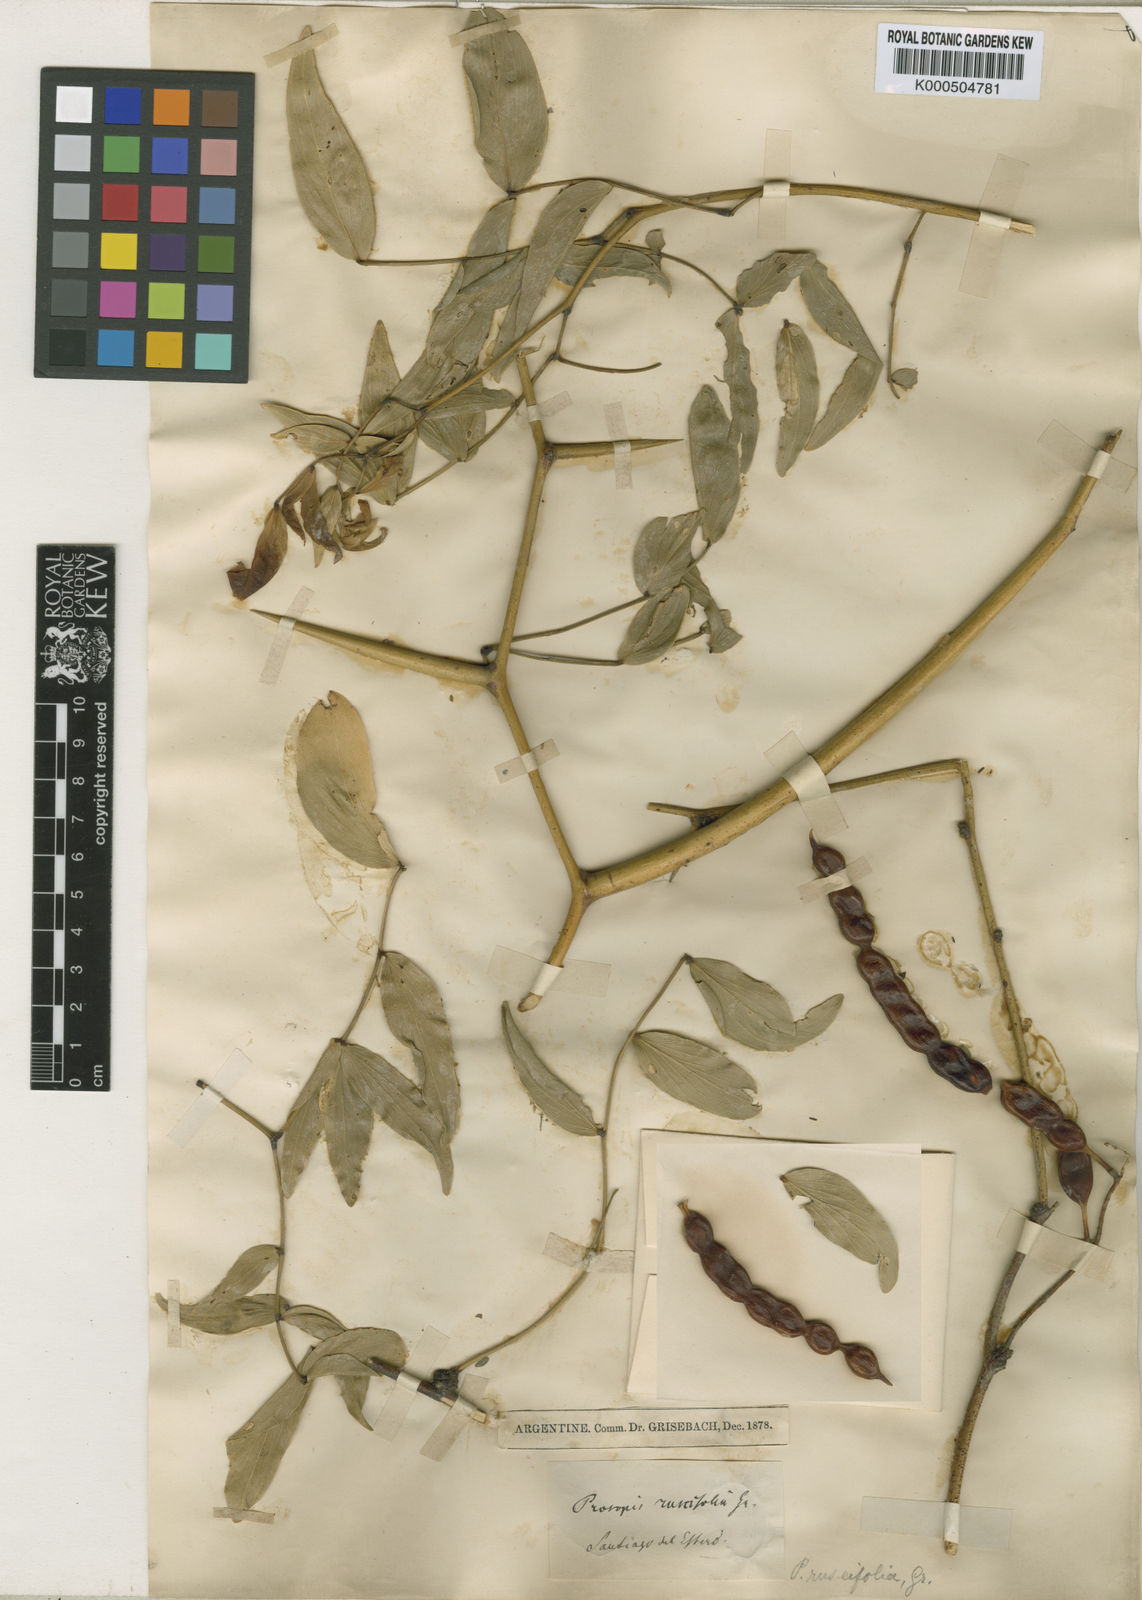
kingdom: Plantae
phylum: Tracheophyta
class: Magnoliopsida
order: Fabales
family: Fabaceae
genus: Prosopis
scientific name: Prosopis ruscifolia
